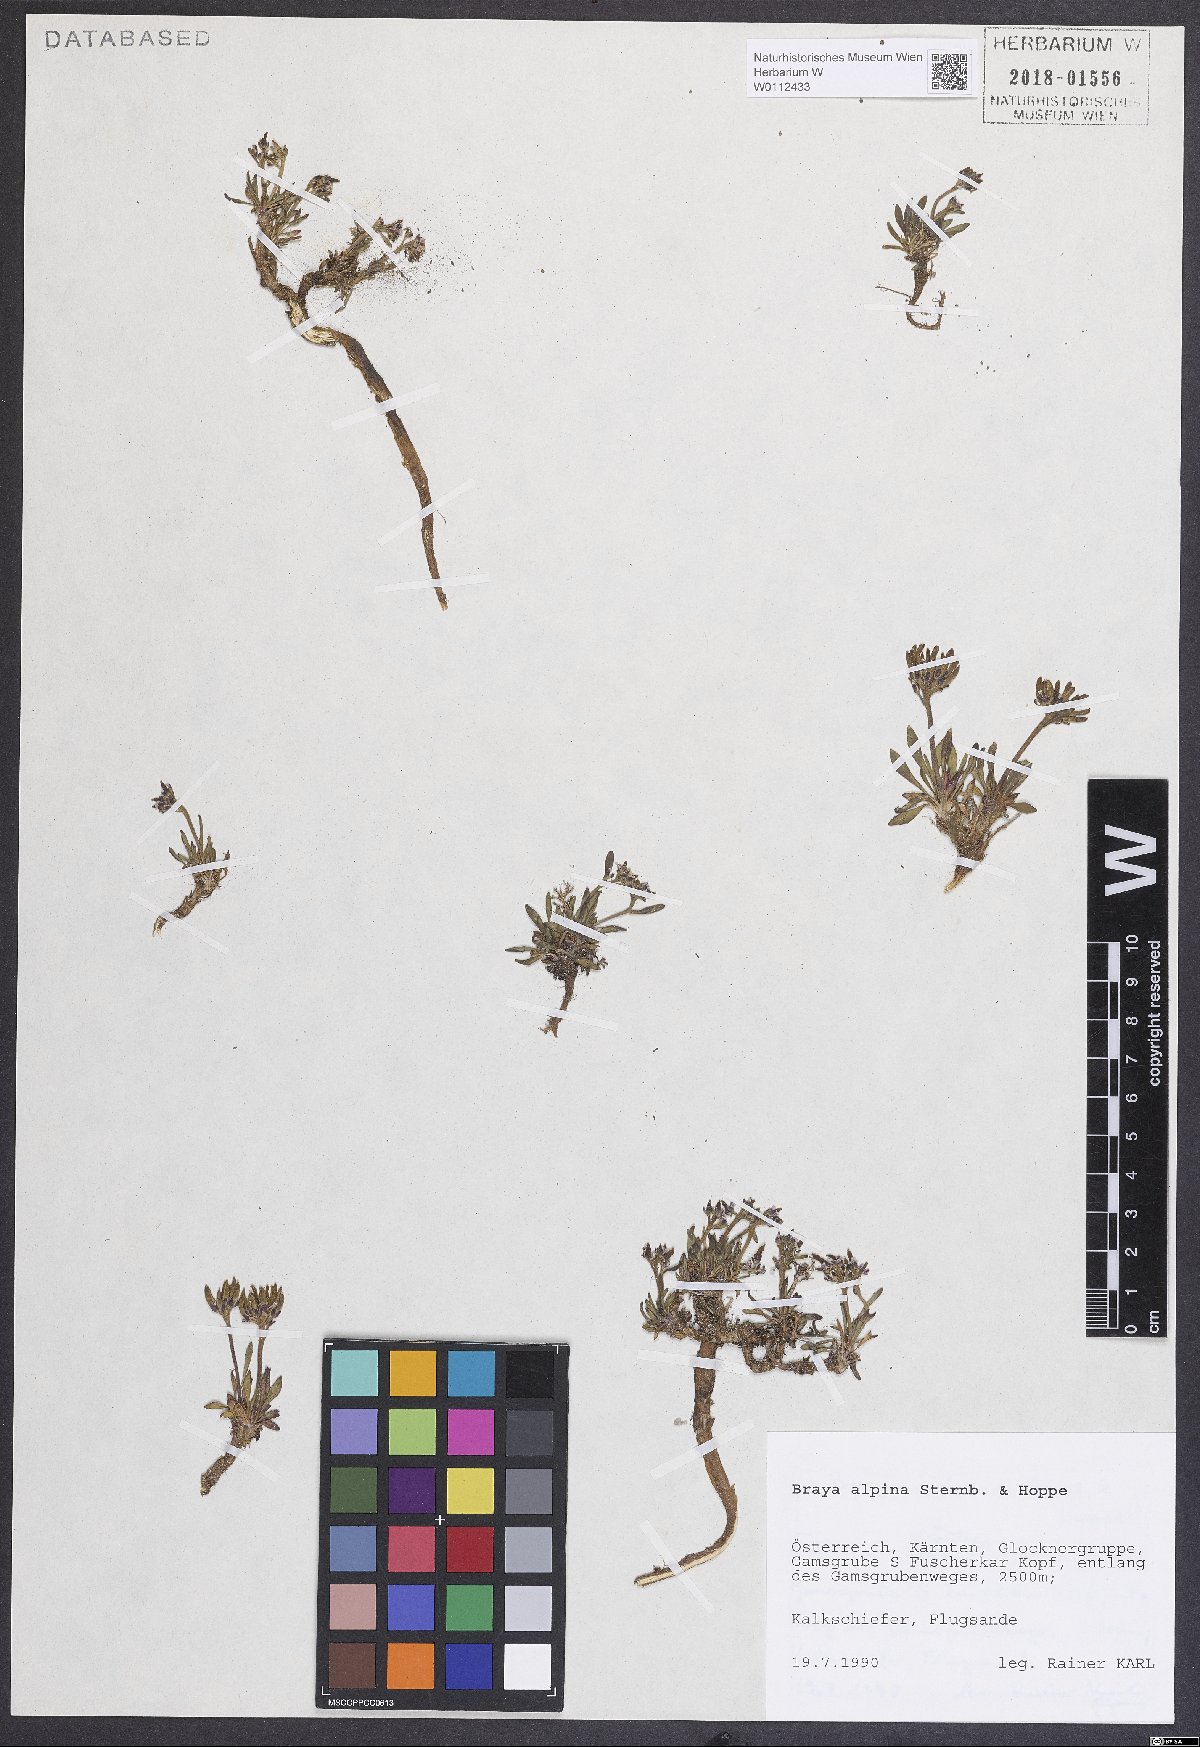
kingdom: Plantae
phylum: Tracheophyta
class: Magnoliopsida
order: Brassicales
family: Brassicaceae
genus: Braya
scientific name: Braya alpina
